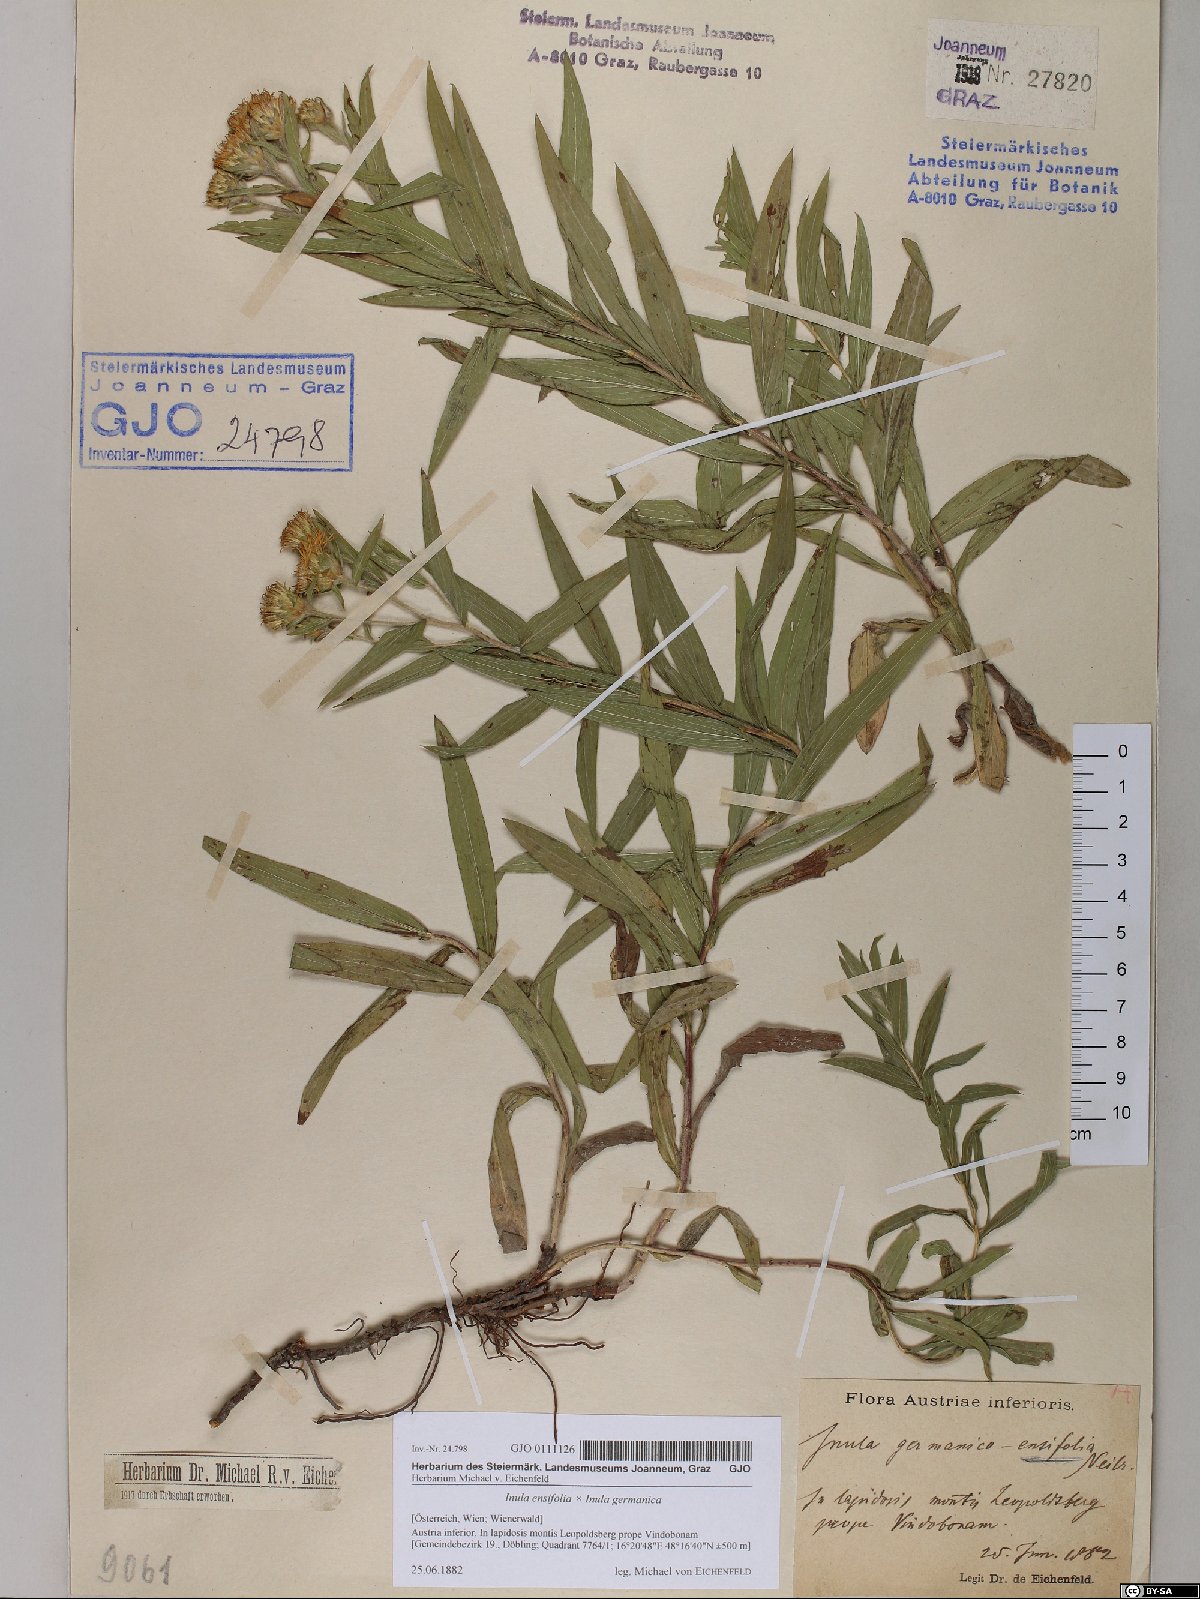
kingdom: Plantae
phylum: Tracheophyta
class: Magnoliopsida
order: Asterales
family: Asteraceae
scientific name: Asteraceae
